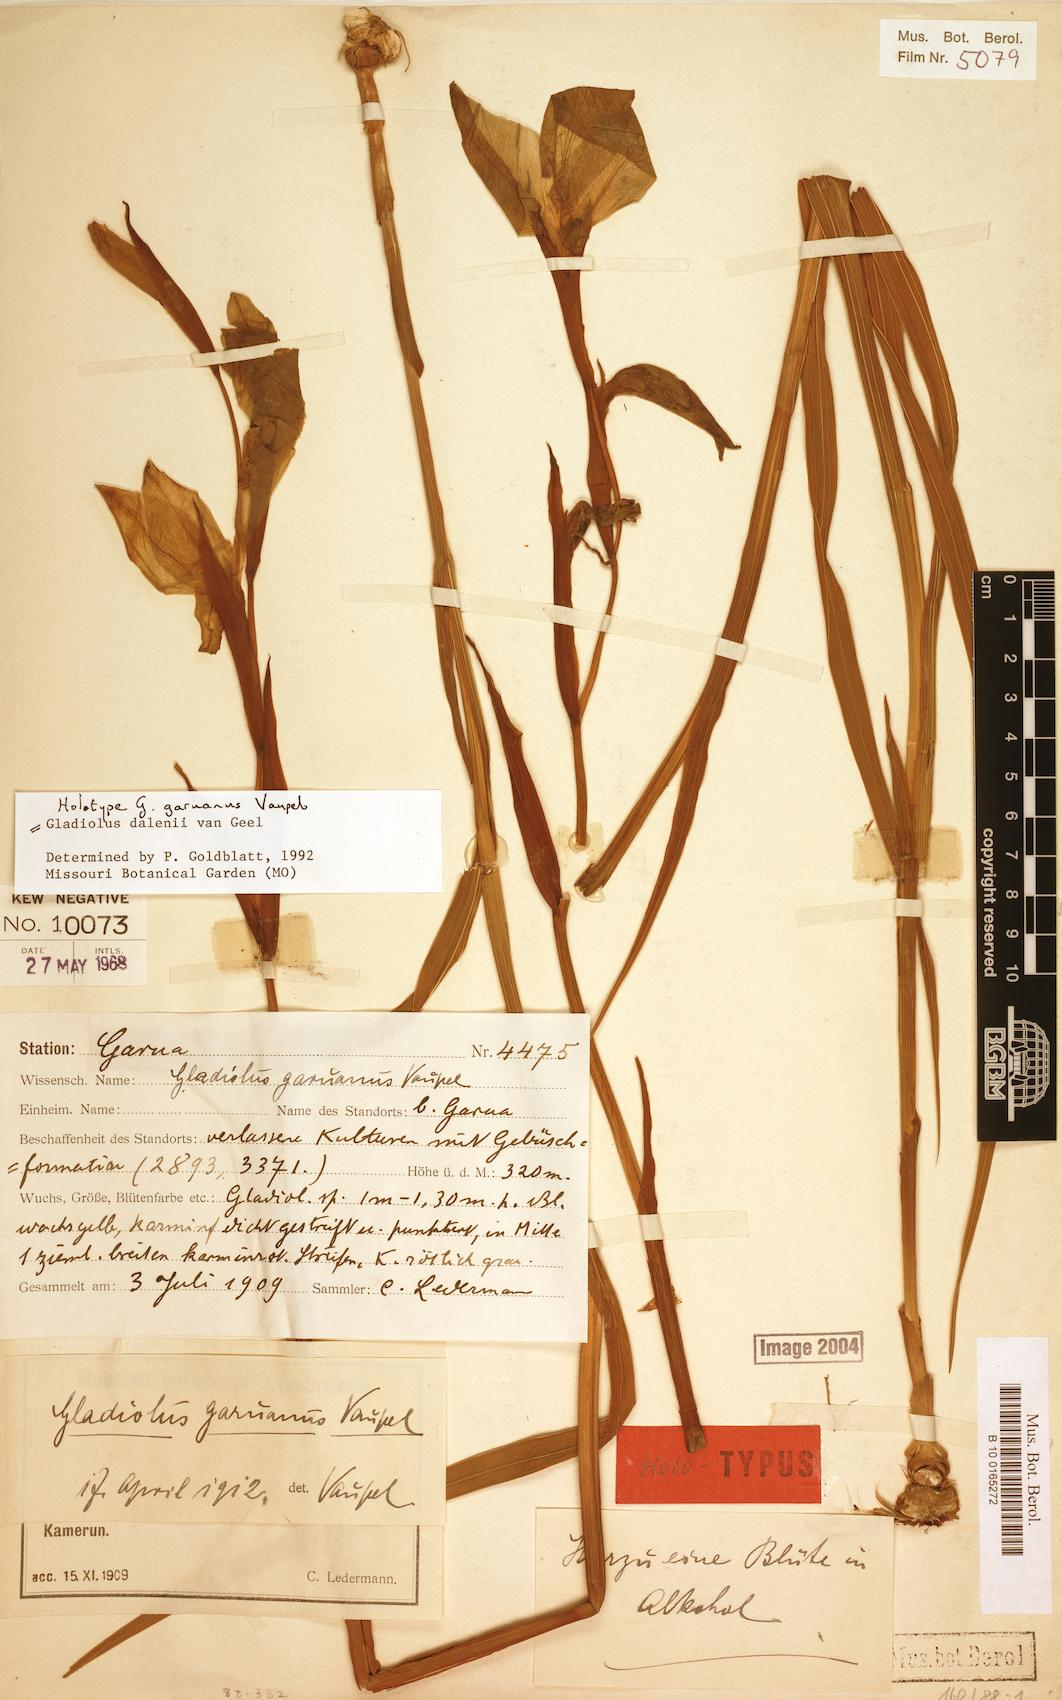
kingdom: Plantae
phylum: Tracheophyta
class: Liliopsida
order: Asparagales
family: Iridaceae
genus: Gladiolus
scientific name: Gladiolus dalenii
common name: Cornflag
